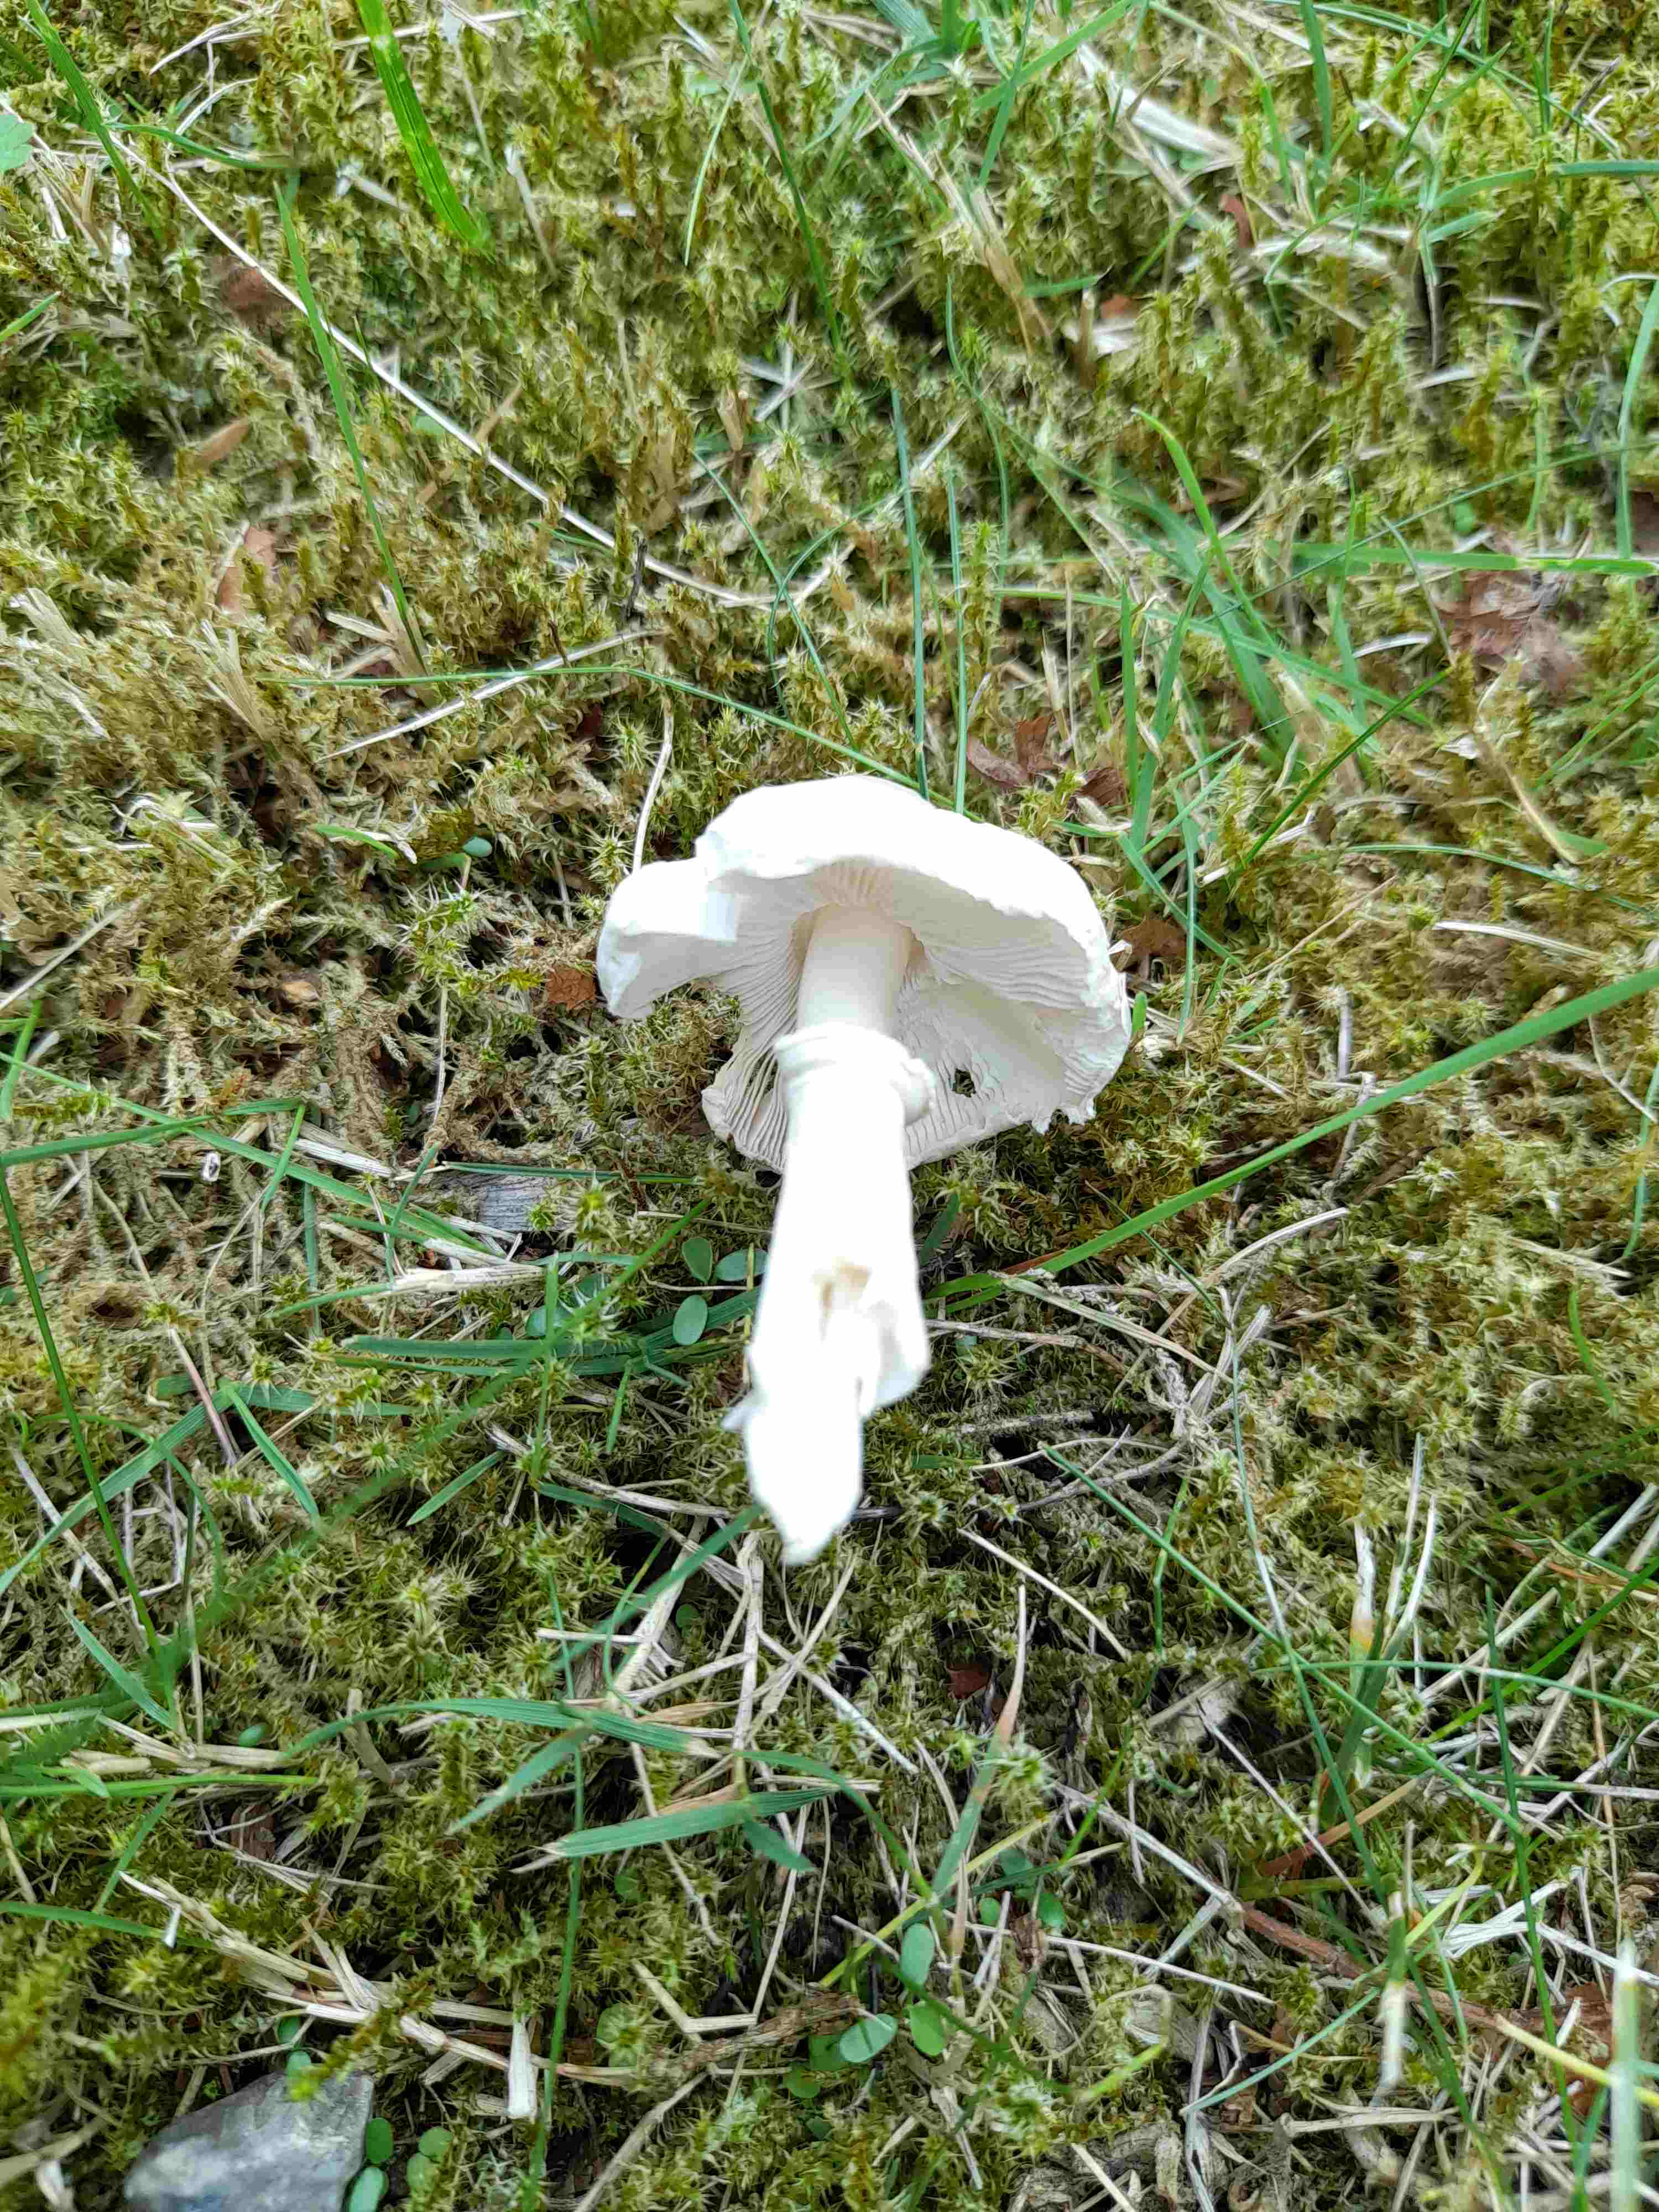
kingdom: Fungi
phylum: Basidiomycota
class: Agaricomycetes
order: Agaricales
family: Agaricaceae
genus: Leucoagaricus
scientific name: Leucoagaricus leucothites
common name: rosabladet silkehat
